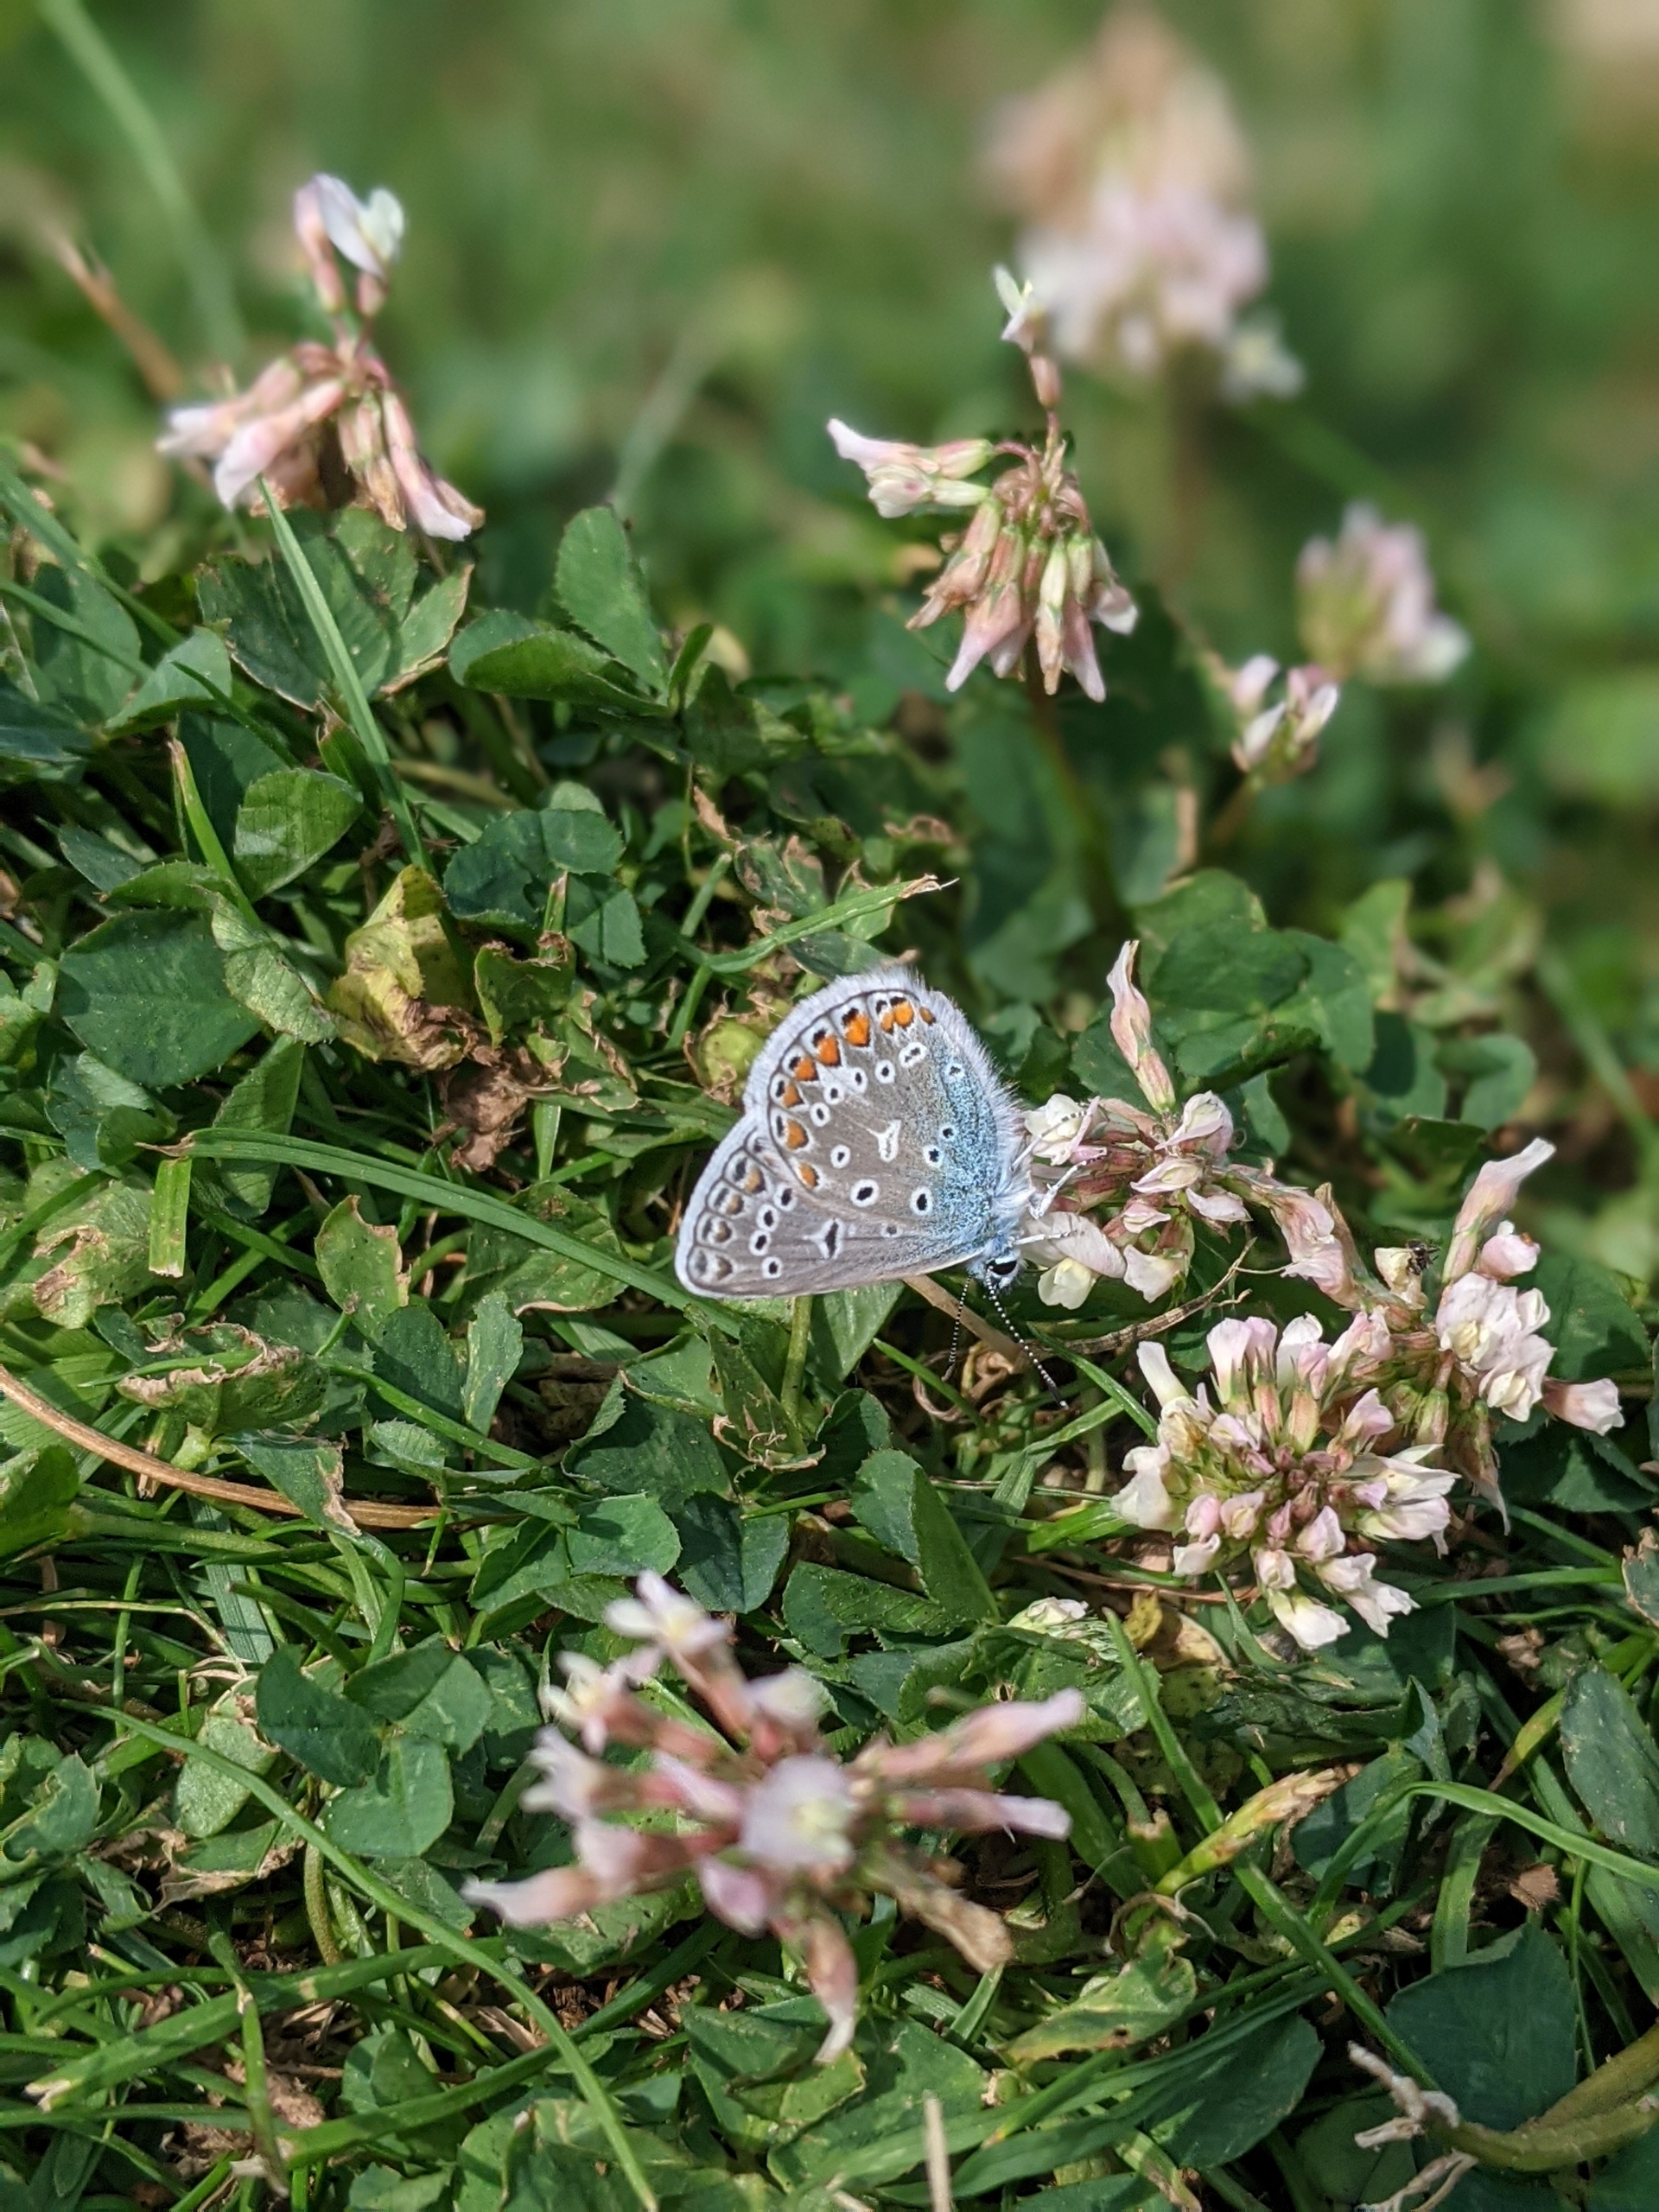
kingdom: Animalia
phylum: Arthropoda
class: Insecta
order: Lepidoptera
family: Lycaenidae
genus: Polyommatus
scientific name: Polyommatus icarus
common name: Almindelig blåfugl
